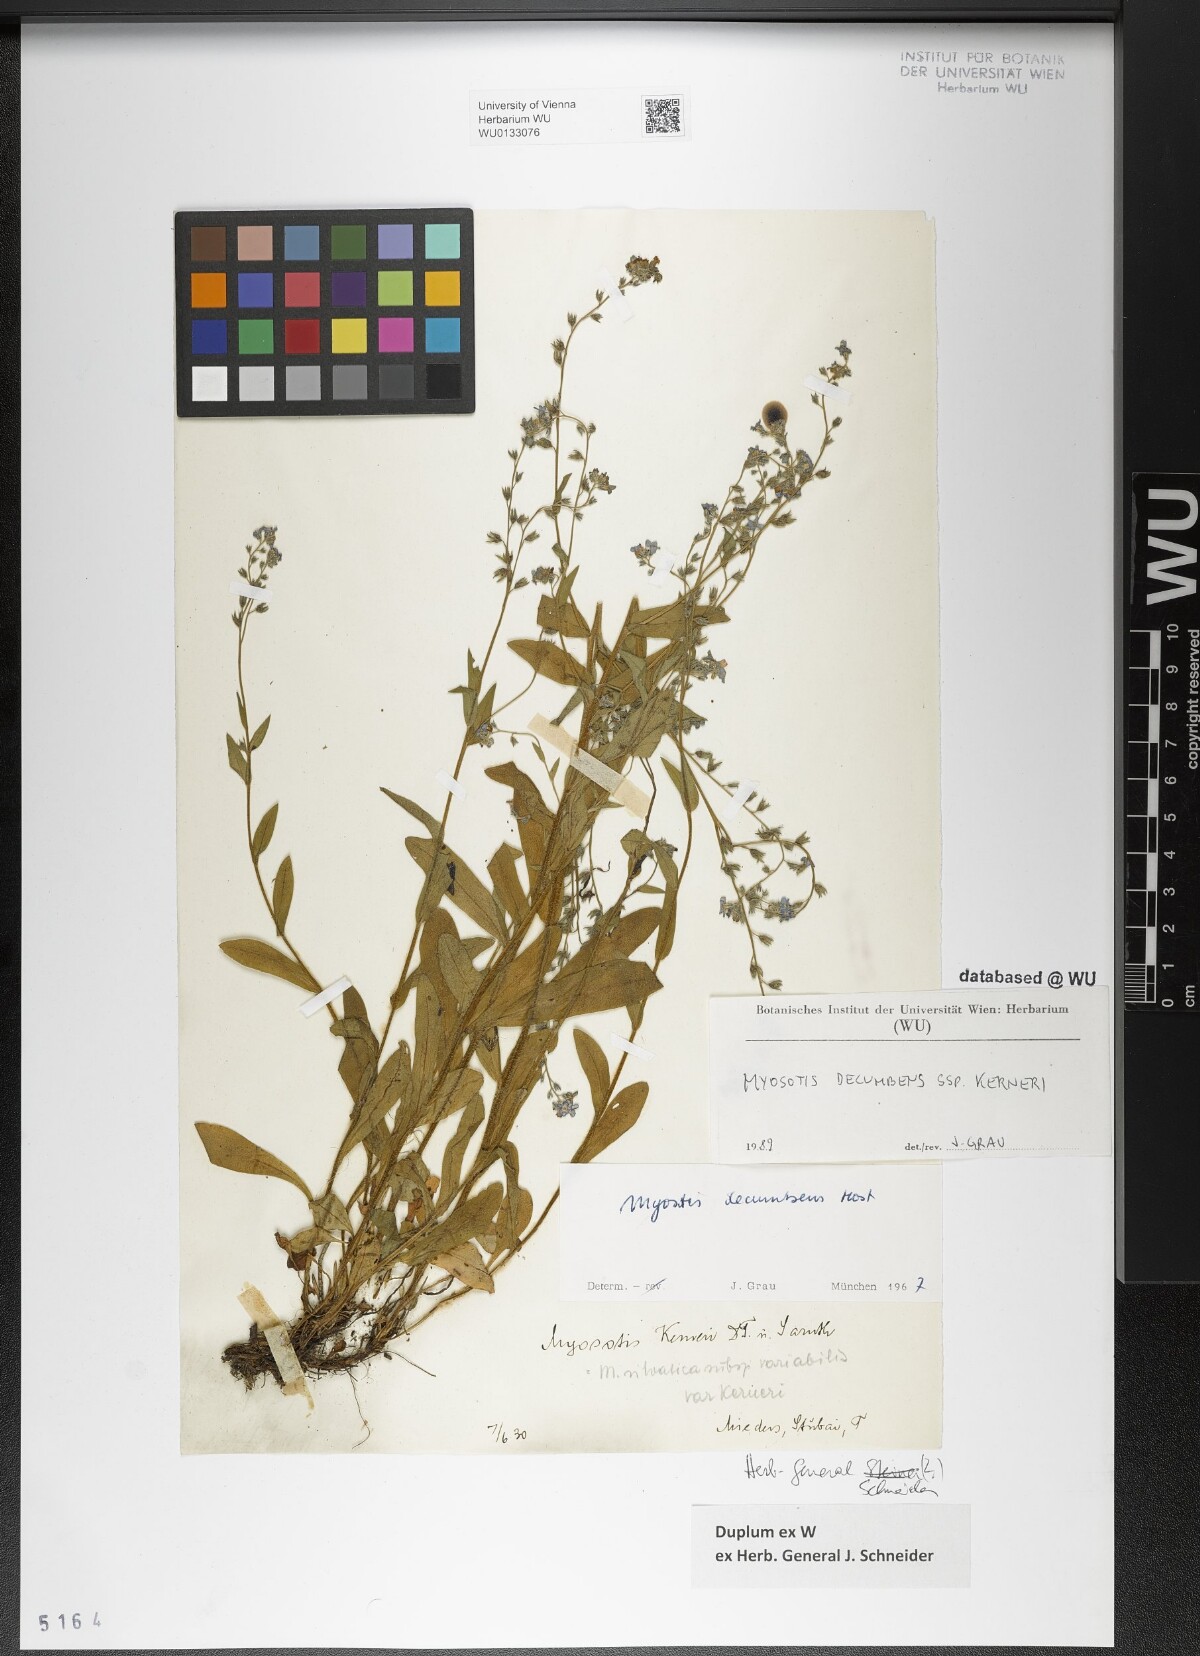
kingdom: Plantae
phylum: Tracheophyta
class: Magnoliopsida
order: Boraginales
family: Boraginaceae
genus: Myosotis
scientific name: Myosotis decumbens
